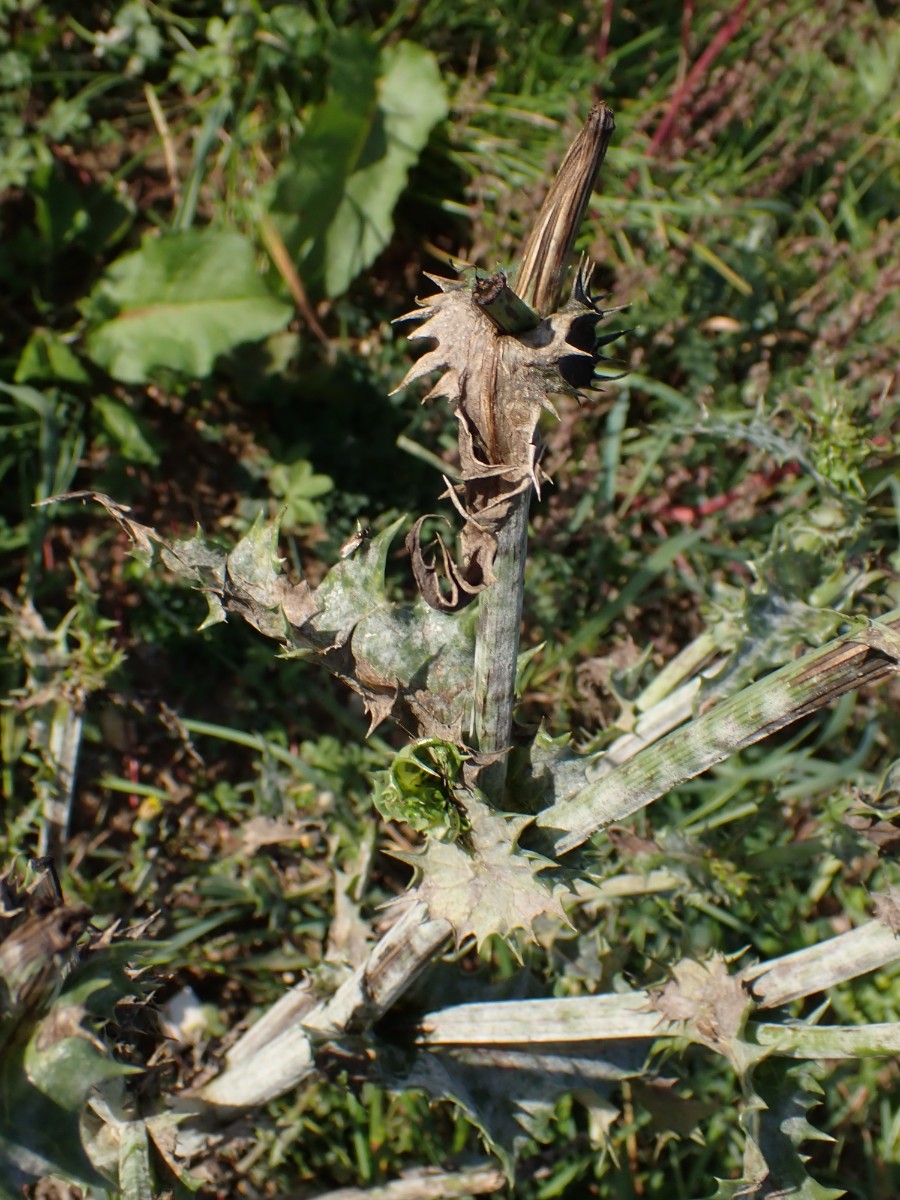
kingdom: Fungi
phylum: Ascomycota
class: Leotiomycetes
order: Helotiales
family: Erysiphaceae
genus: Golovinomyces
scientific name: Golovinomyces sonchicola
